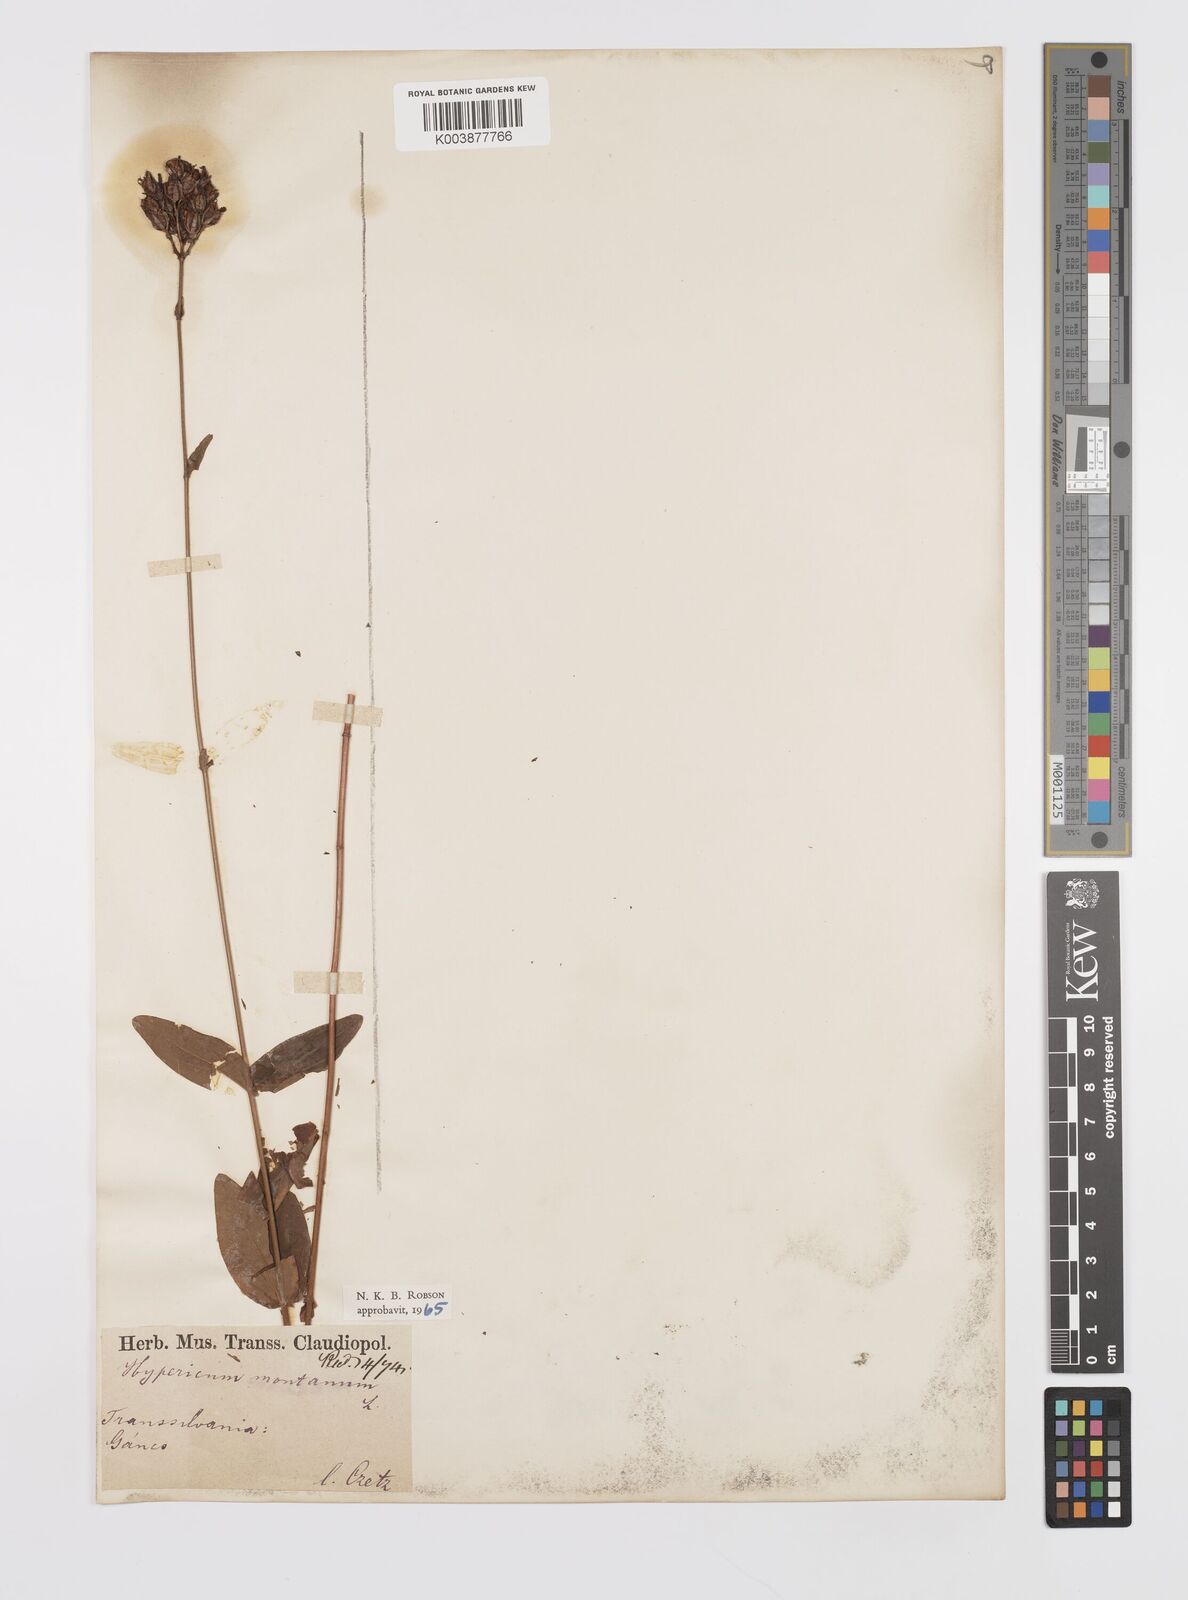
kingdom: Plantae
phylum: Tracheophyta
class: Magnoliopsida
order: Malpighiales
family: Hypericaceae
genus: Hypericum
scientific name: Hypericum montanum
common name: Pale st. john's-wort
